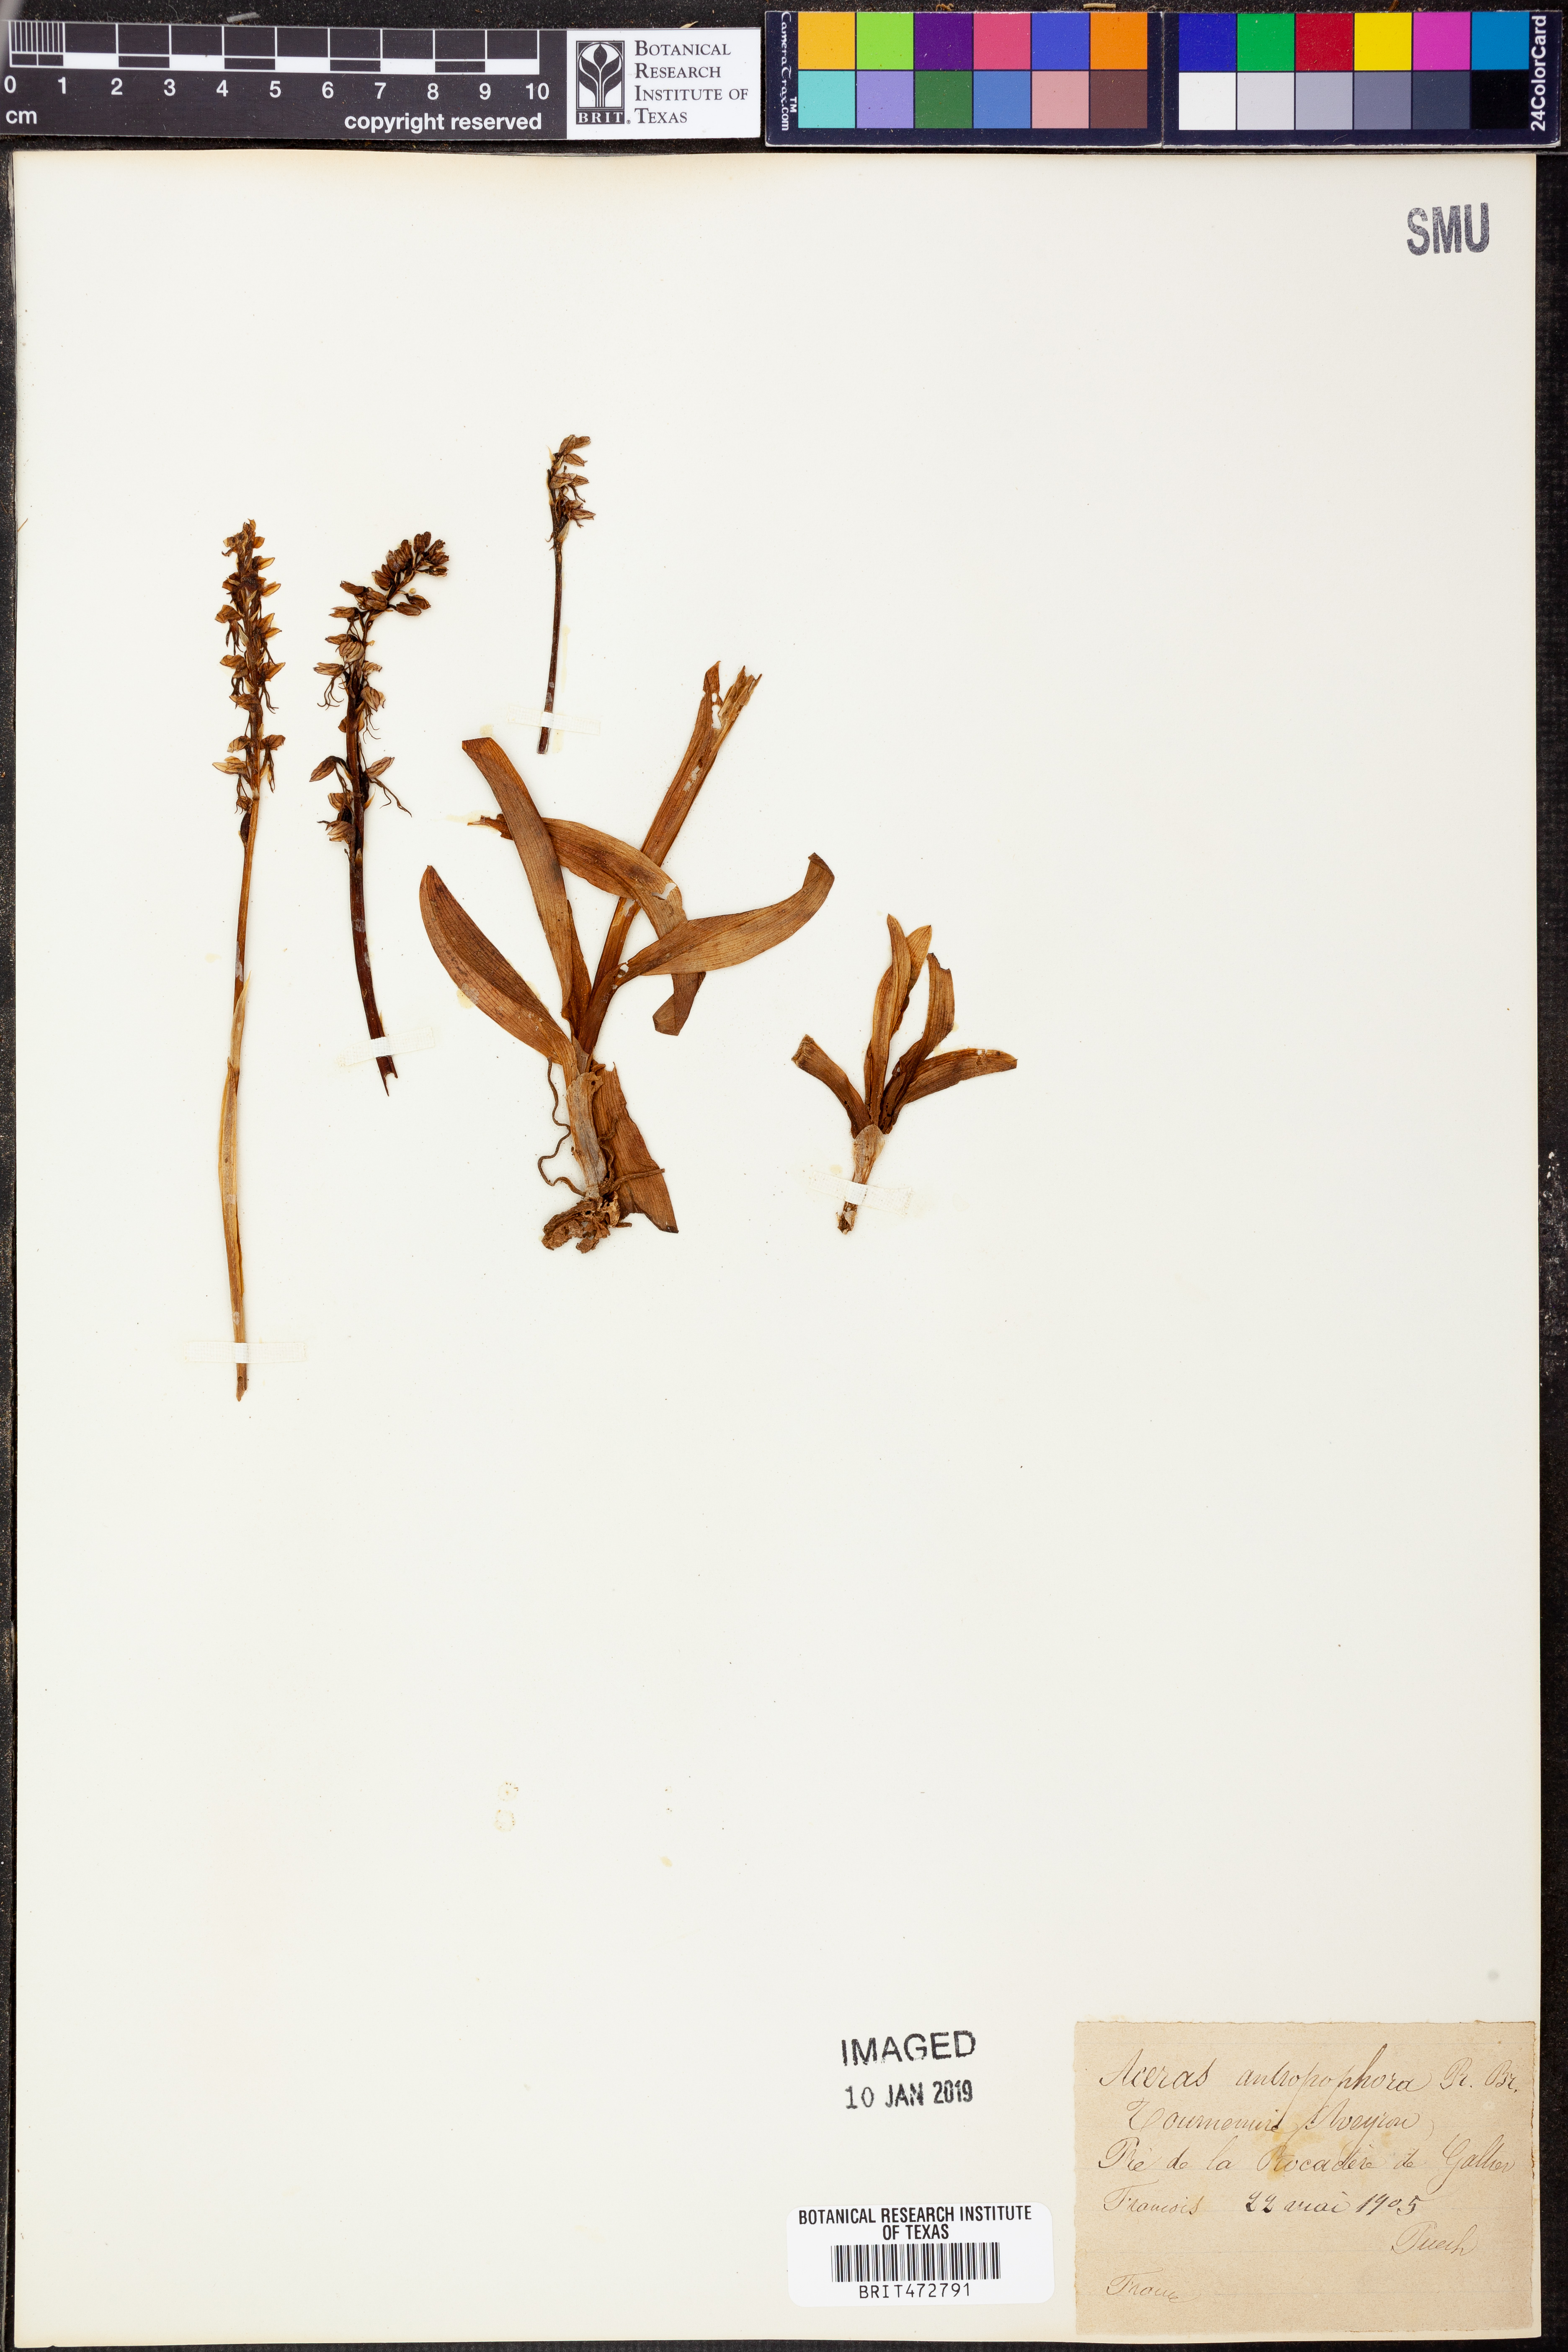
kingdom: Plantae
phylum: Tracheophyta
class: Liliopsida
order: Asparagales
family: Orchidaceae
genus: Orchis
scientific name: Orchis anthropophora
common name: Man orchid
